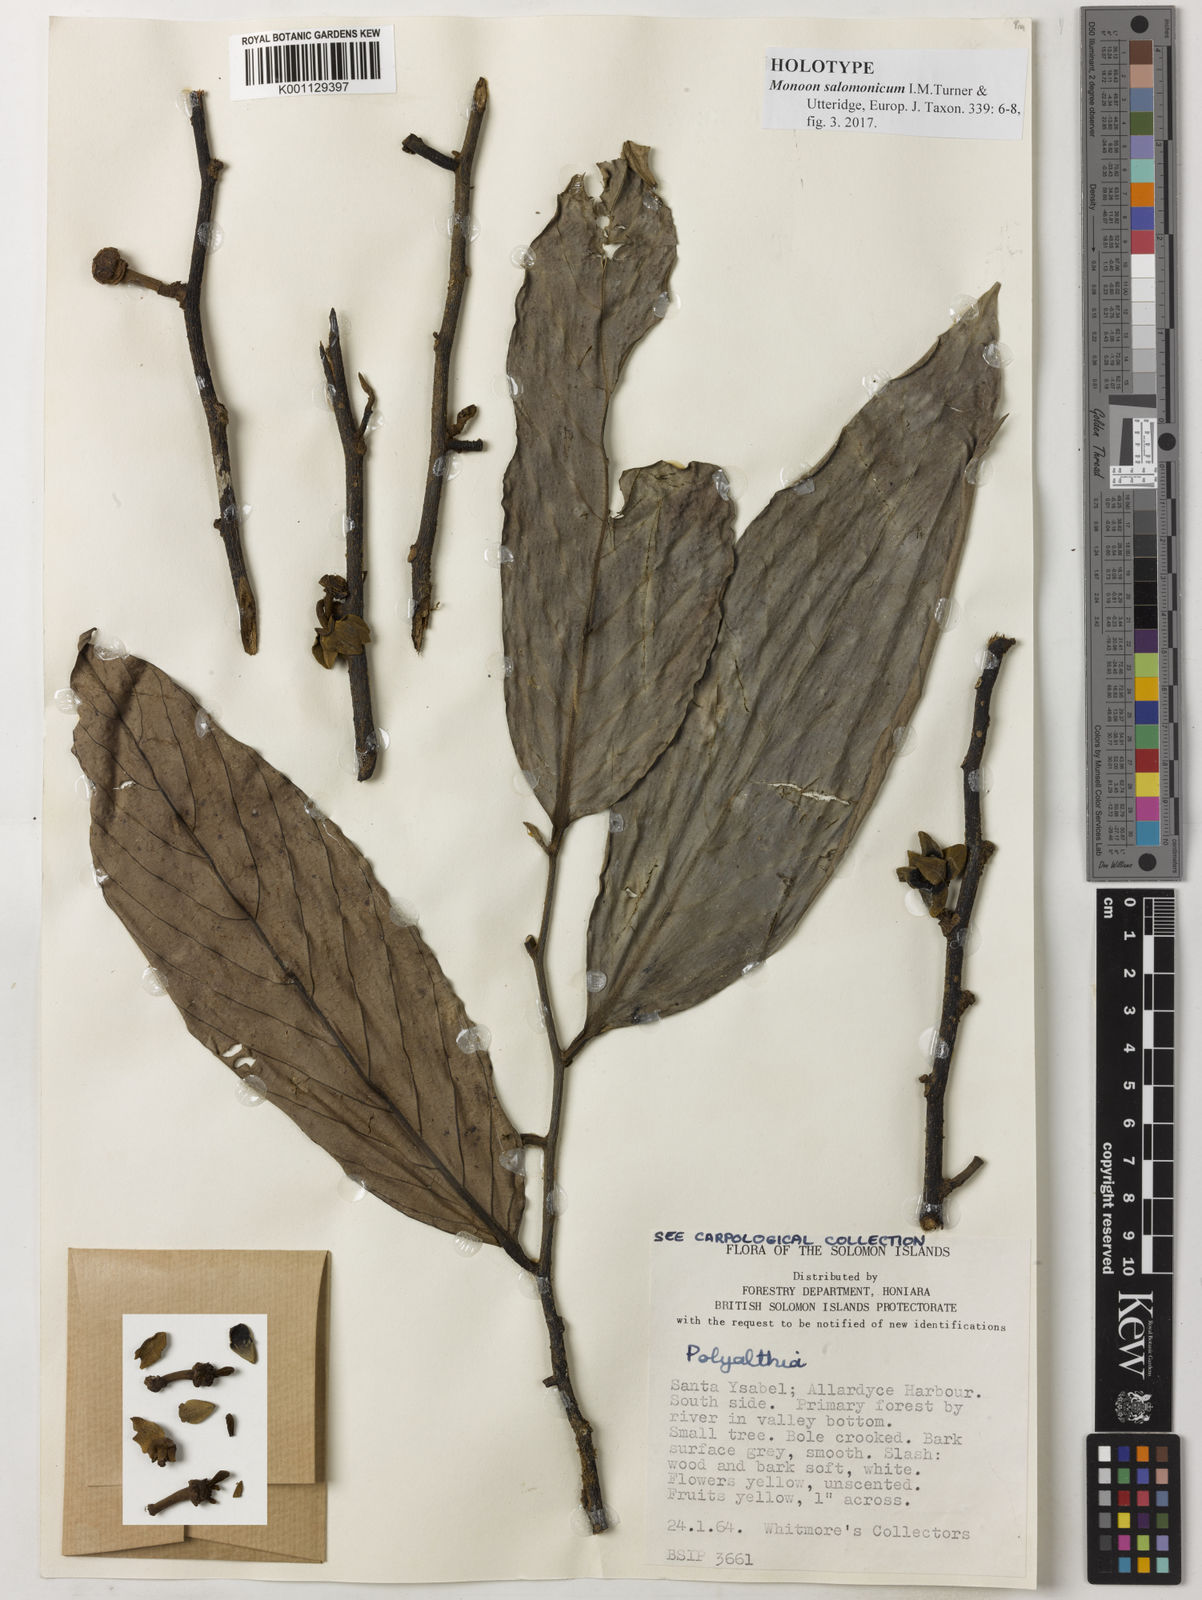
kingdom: Plantae
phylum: Tracheophyta
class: Magnoliopsida
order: Magnoliales
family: Annonaceae
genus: Monoon
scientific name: Monoon salomonicum
